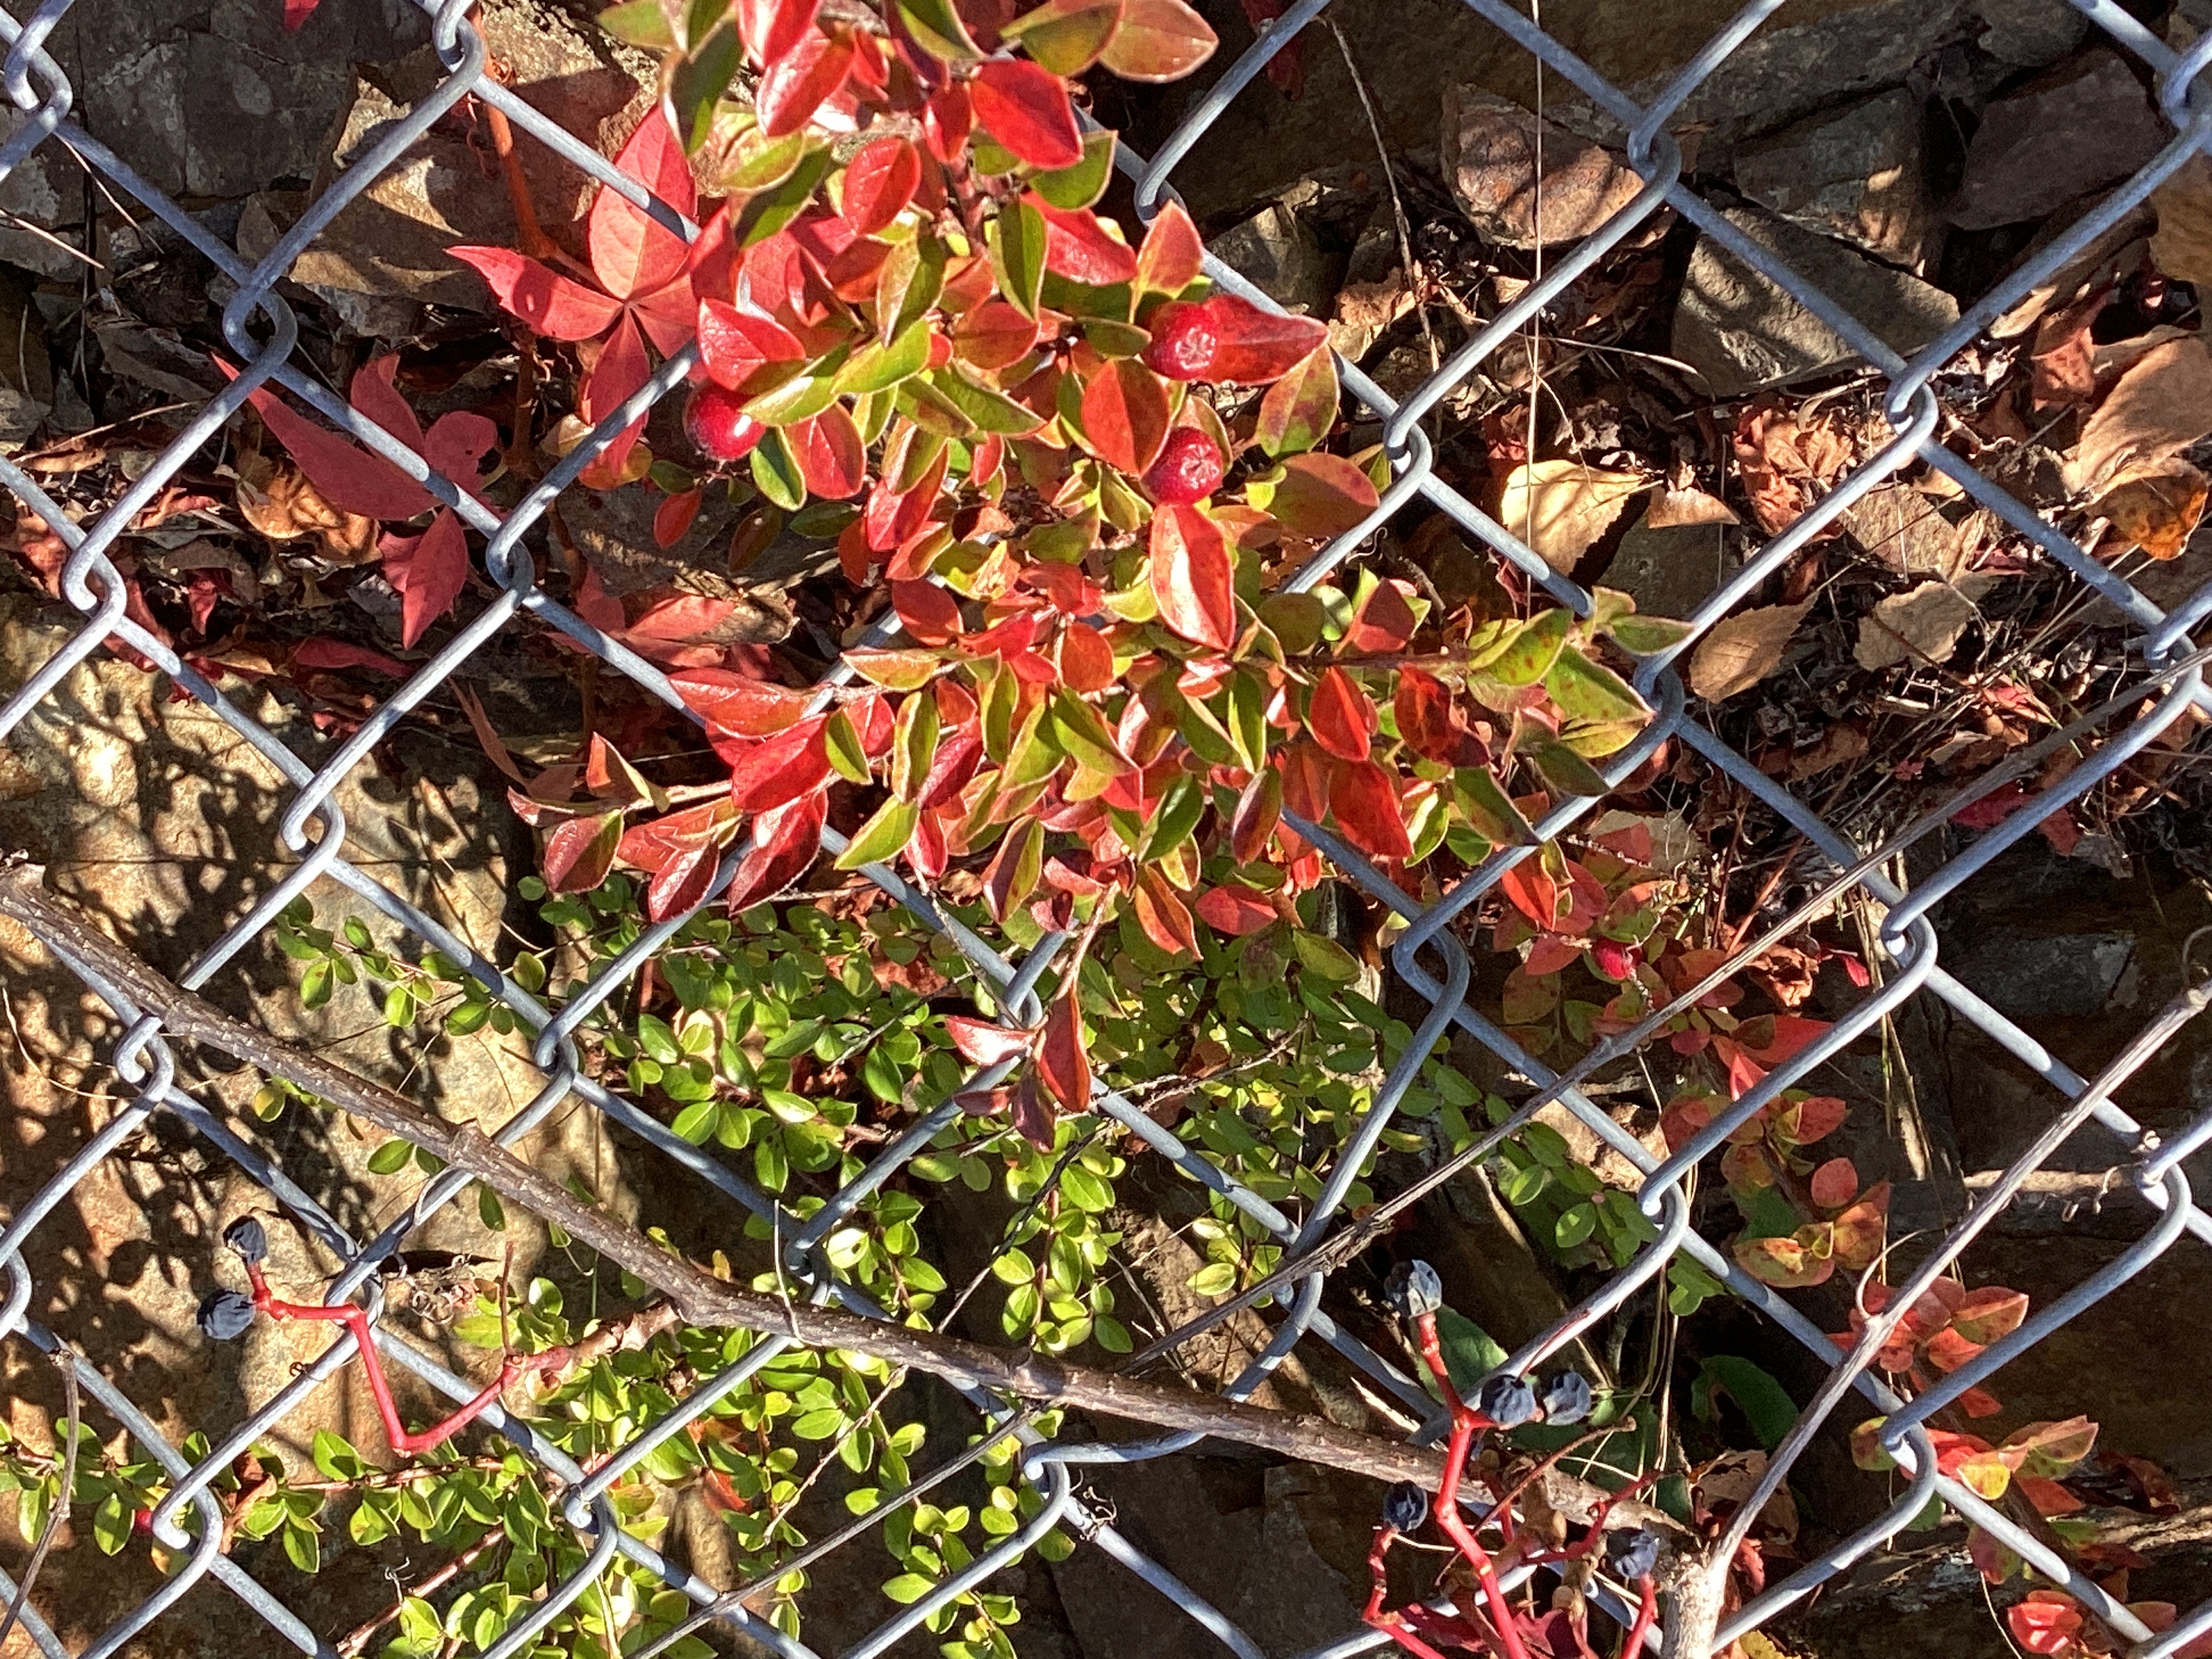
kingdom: Plantae
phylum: Tracheophyta
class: Magnoliopsida
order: Rosales
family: Rosaceae
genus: Cotoneaster
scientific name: Cotoneaster divaricatus
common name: sprikemispel
